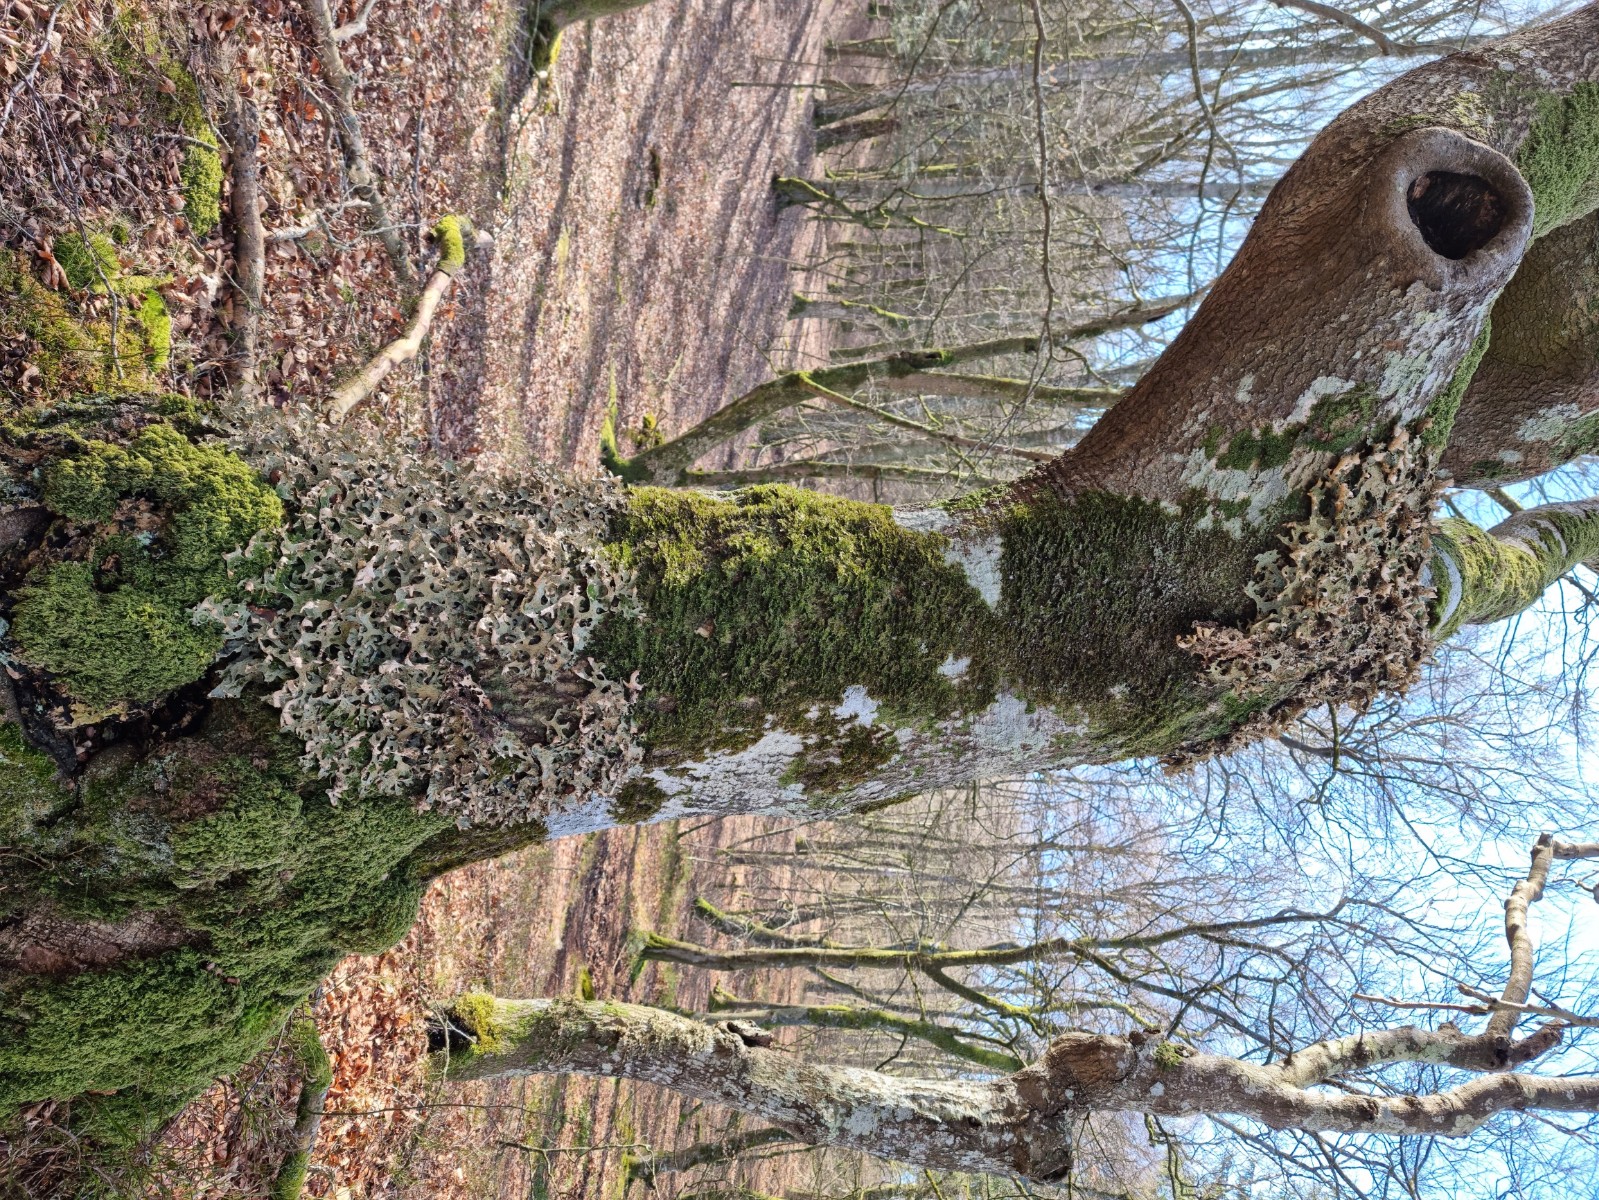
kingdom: Fungi
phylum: Ascomycota
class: Lecanoromycetes
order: Peltigerales
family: Lobariaceae
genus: Lobaria
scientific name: Lobaria pulmonaria
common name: almindelig lungelav
